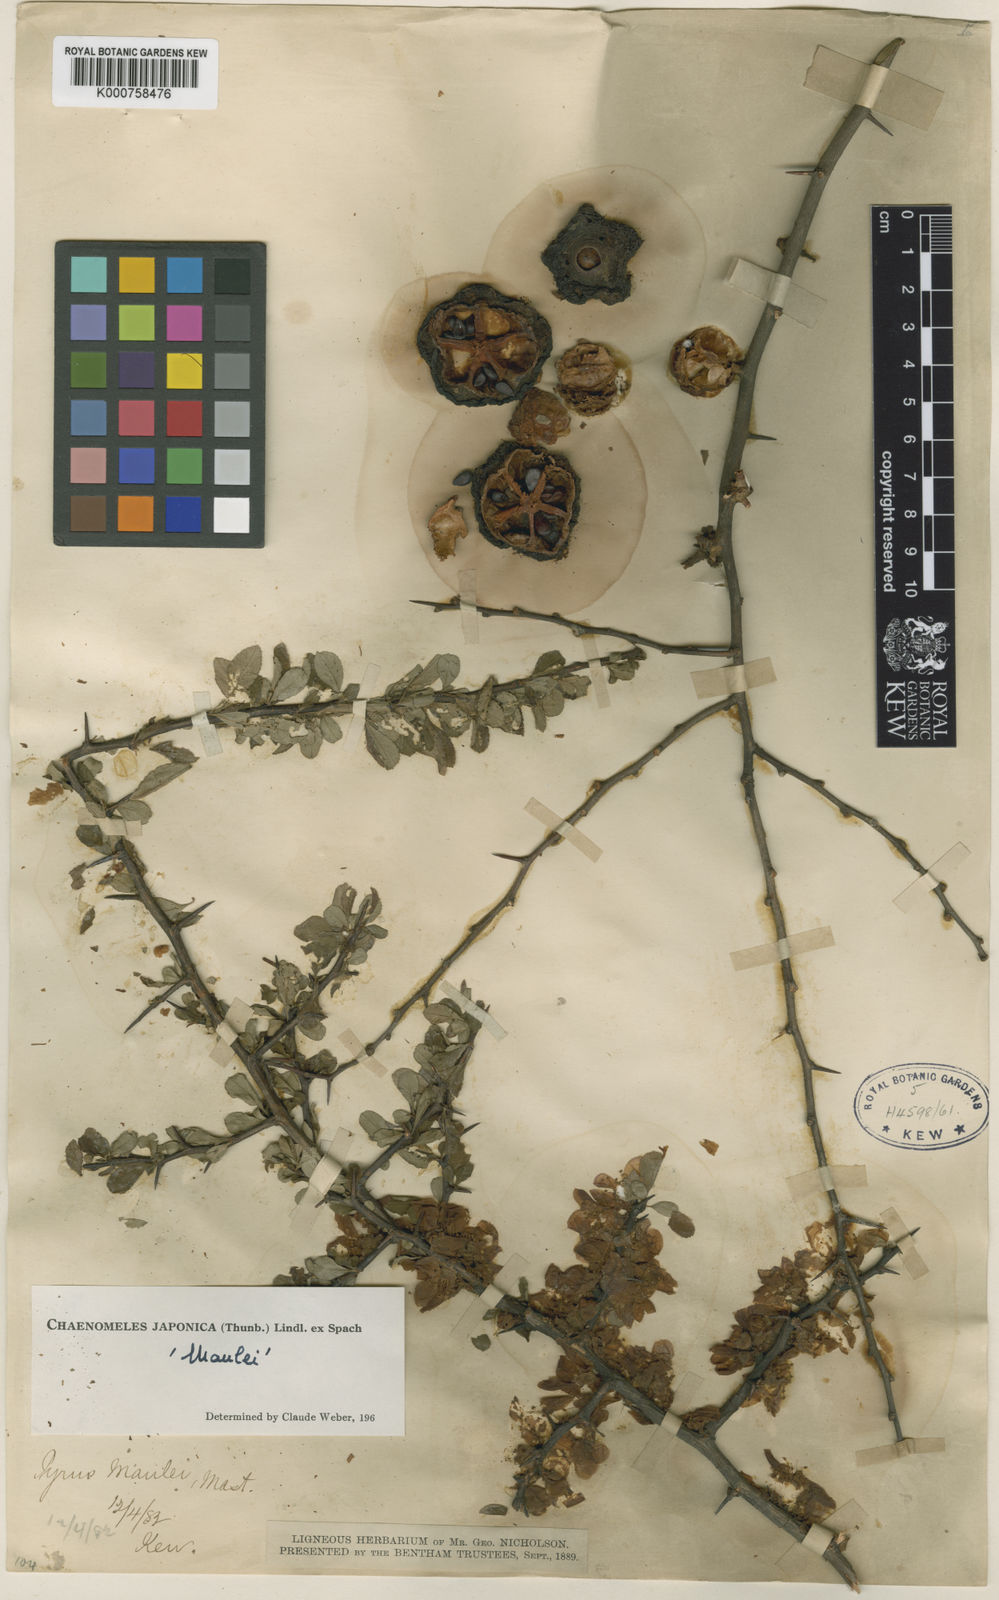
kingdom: Plantae
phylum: Tracheophyta
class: Magnoliopsida
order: Rosales
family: Rosaceae
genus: Chaenomeles
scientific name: Chaenomeles japonica
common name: Japanese quince
